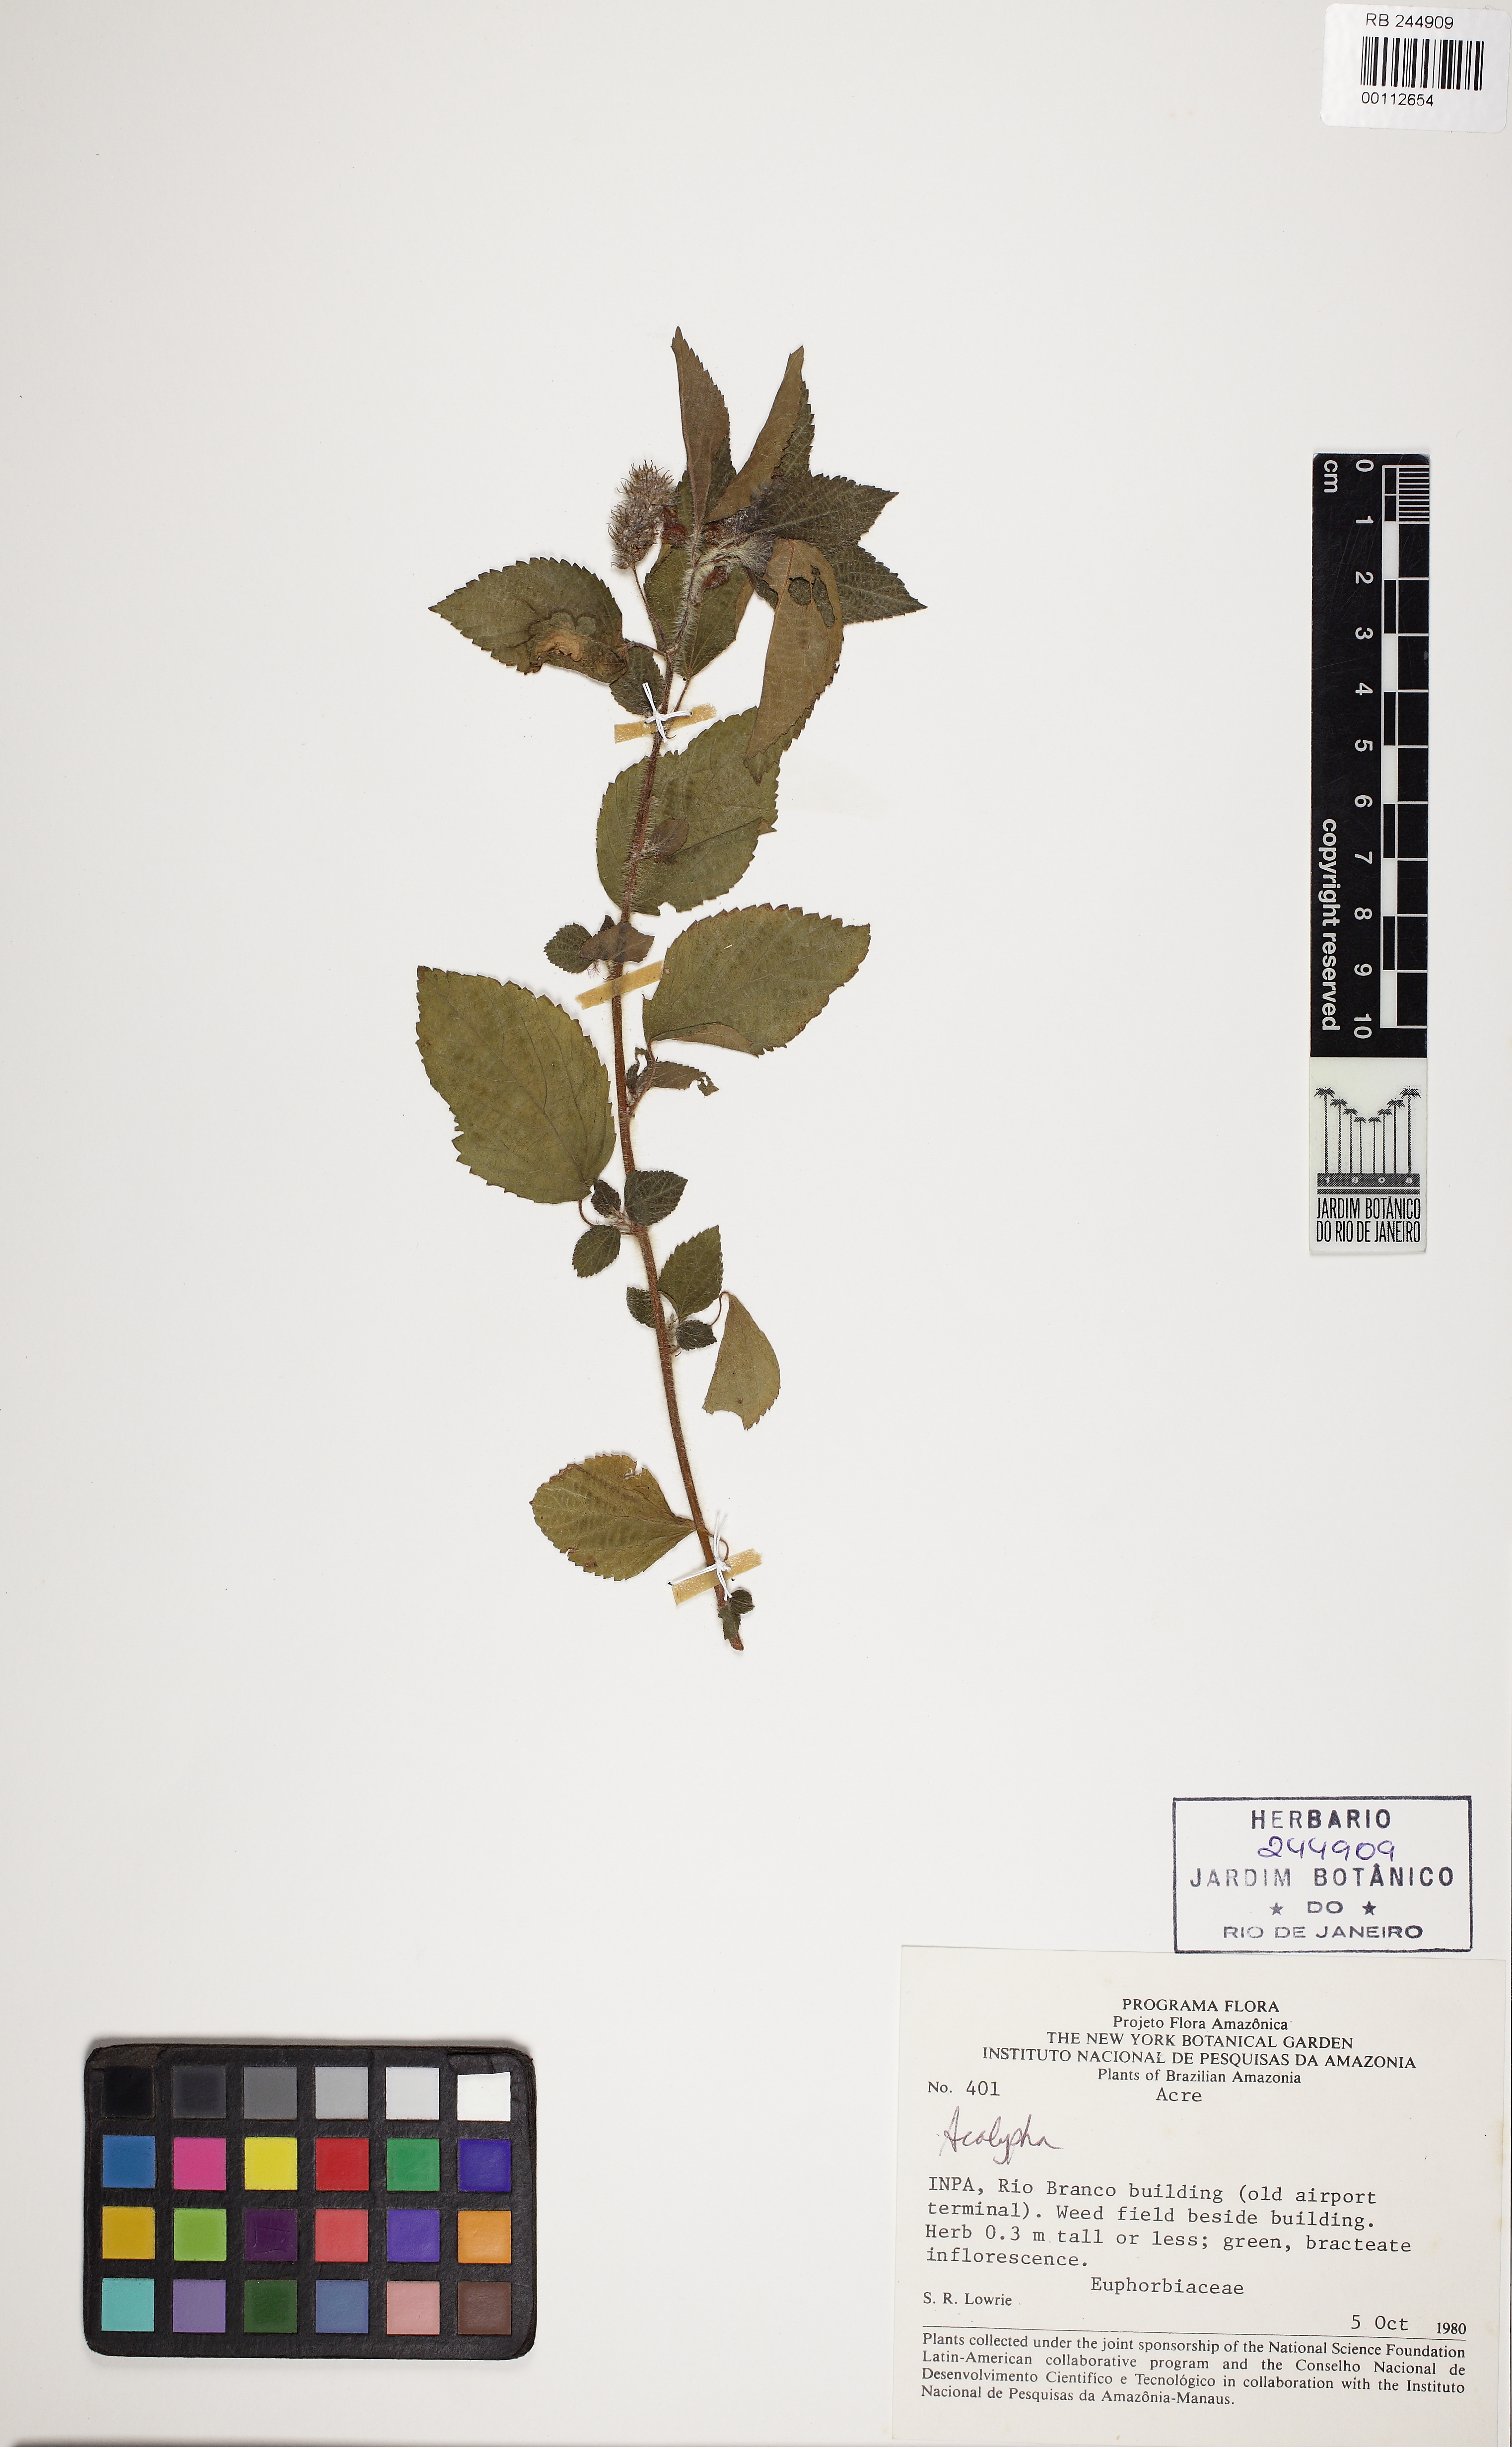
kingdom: Plantae
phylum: Tracheophyta
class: Magnoliopsida
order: Malpighiales
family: Euphorbiaceae
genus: Acalypha
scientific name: Acalypha alopecuroidea
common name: Foxtail copperleaf
